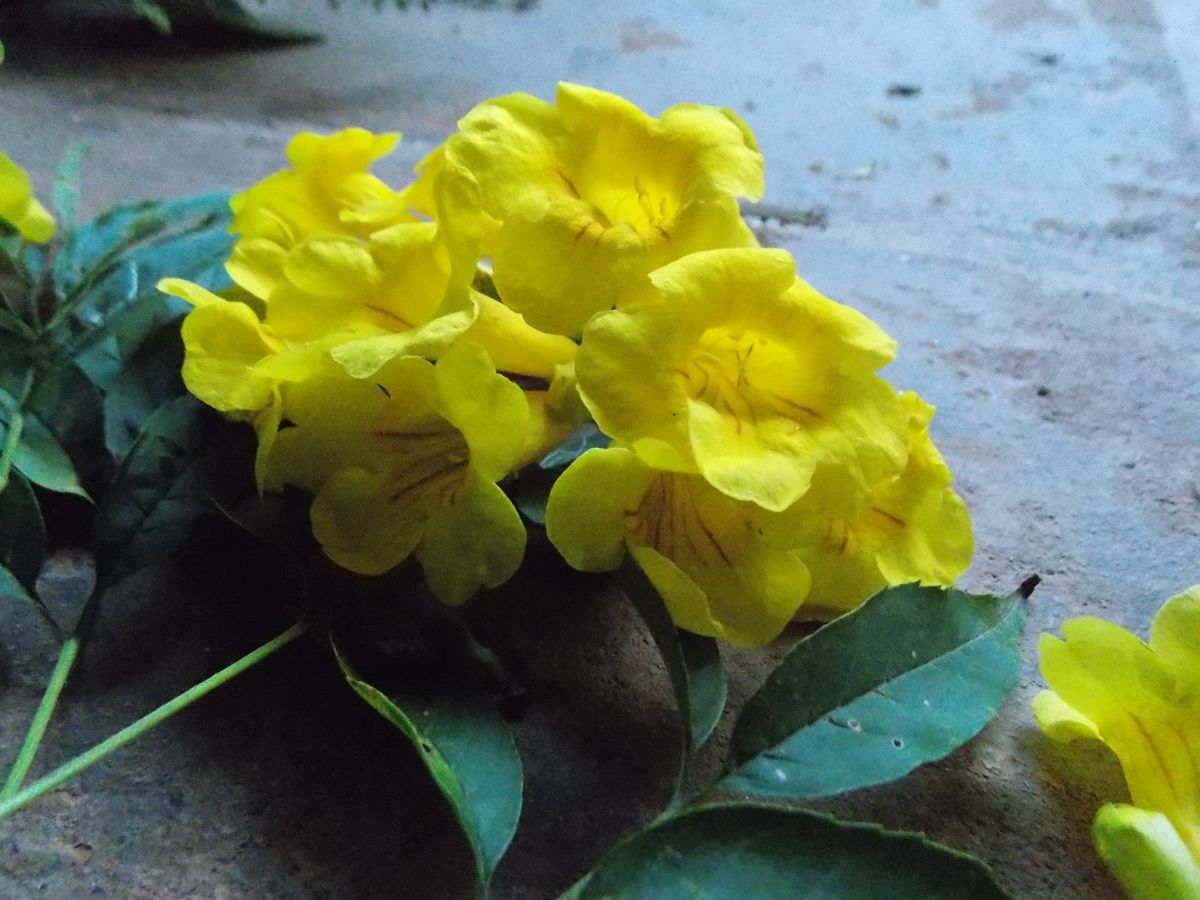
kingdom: Plantae
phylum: Tracheophyta
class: Magnoliopsida
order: Lamiales
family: Bignoniaceae
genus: Tecoma
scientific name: Tecoma stans
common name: Yellow trumpetbush
